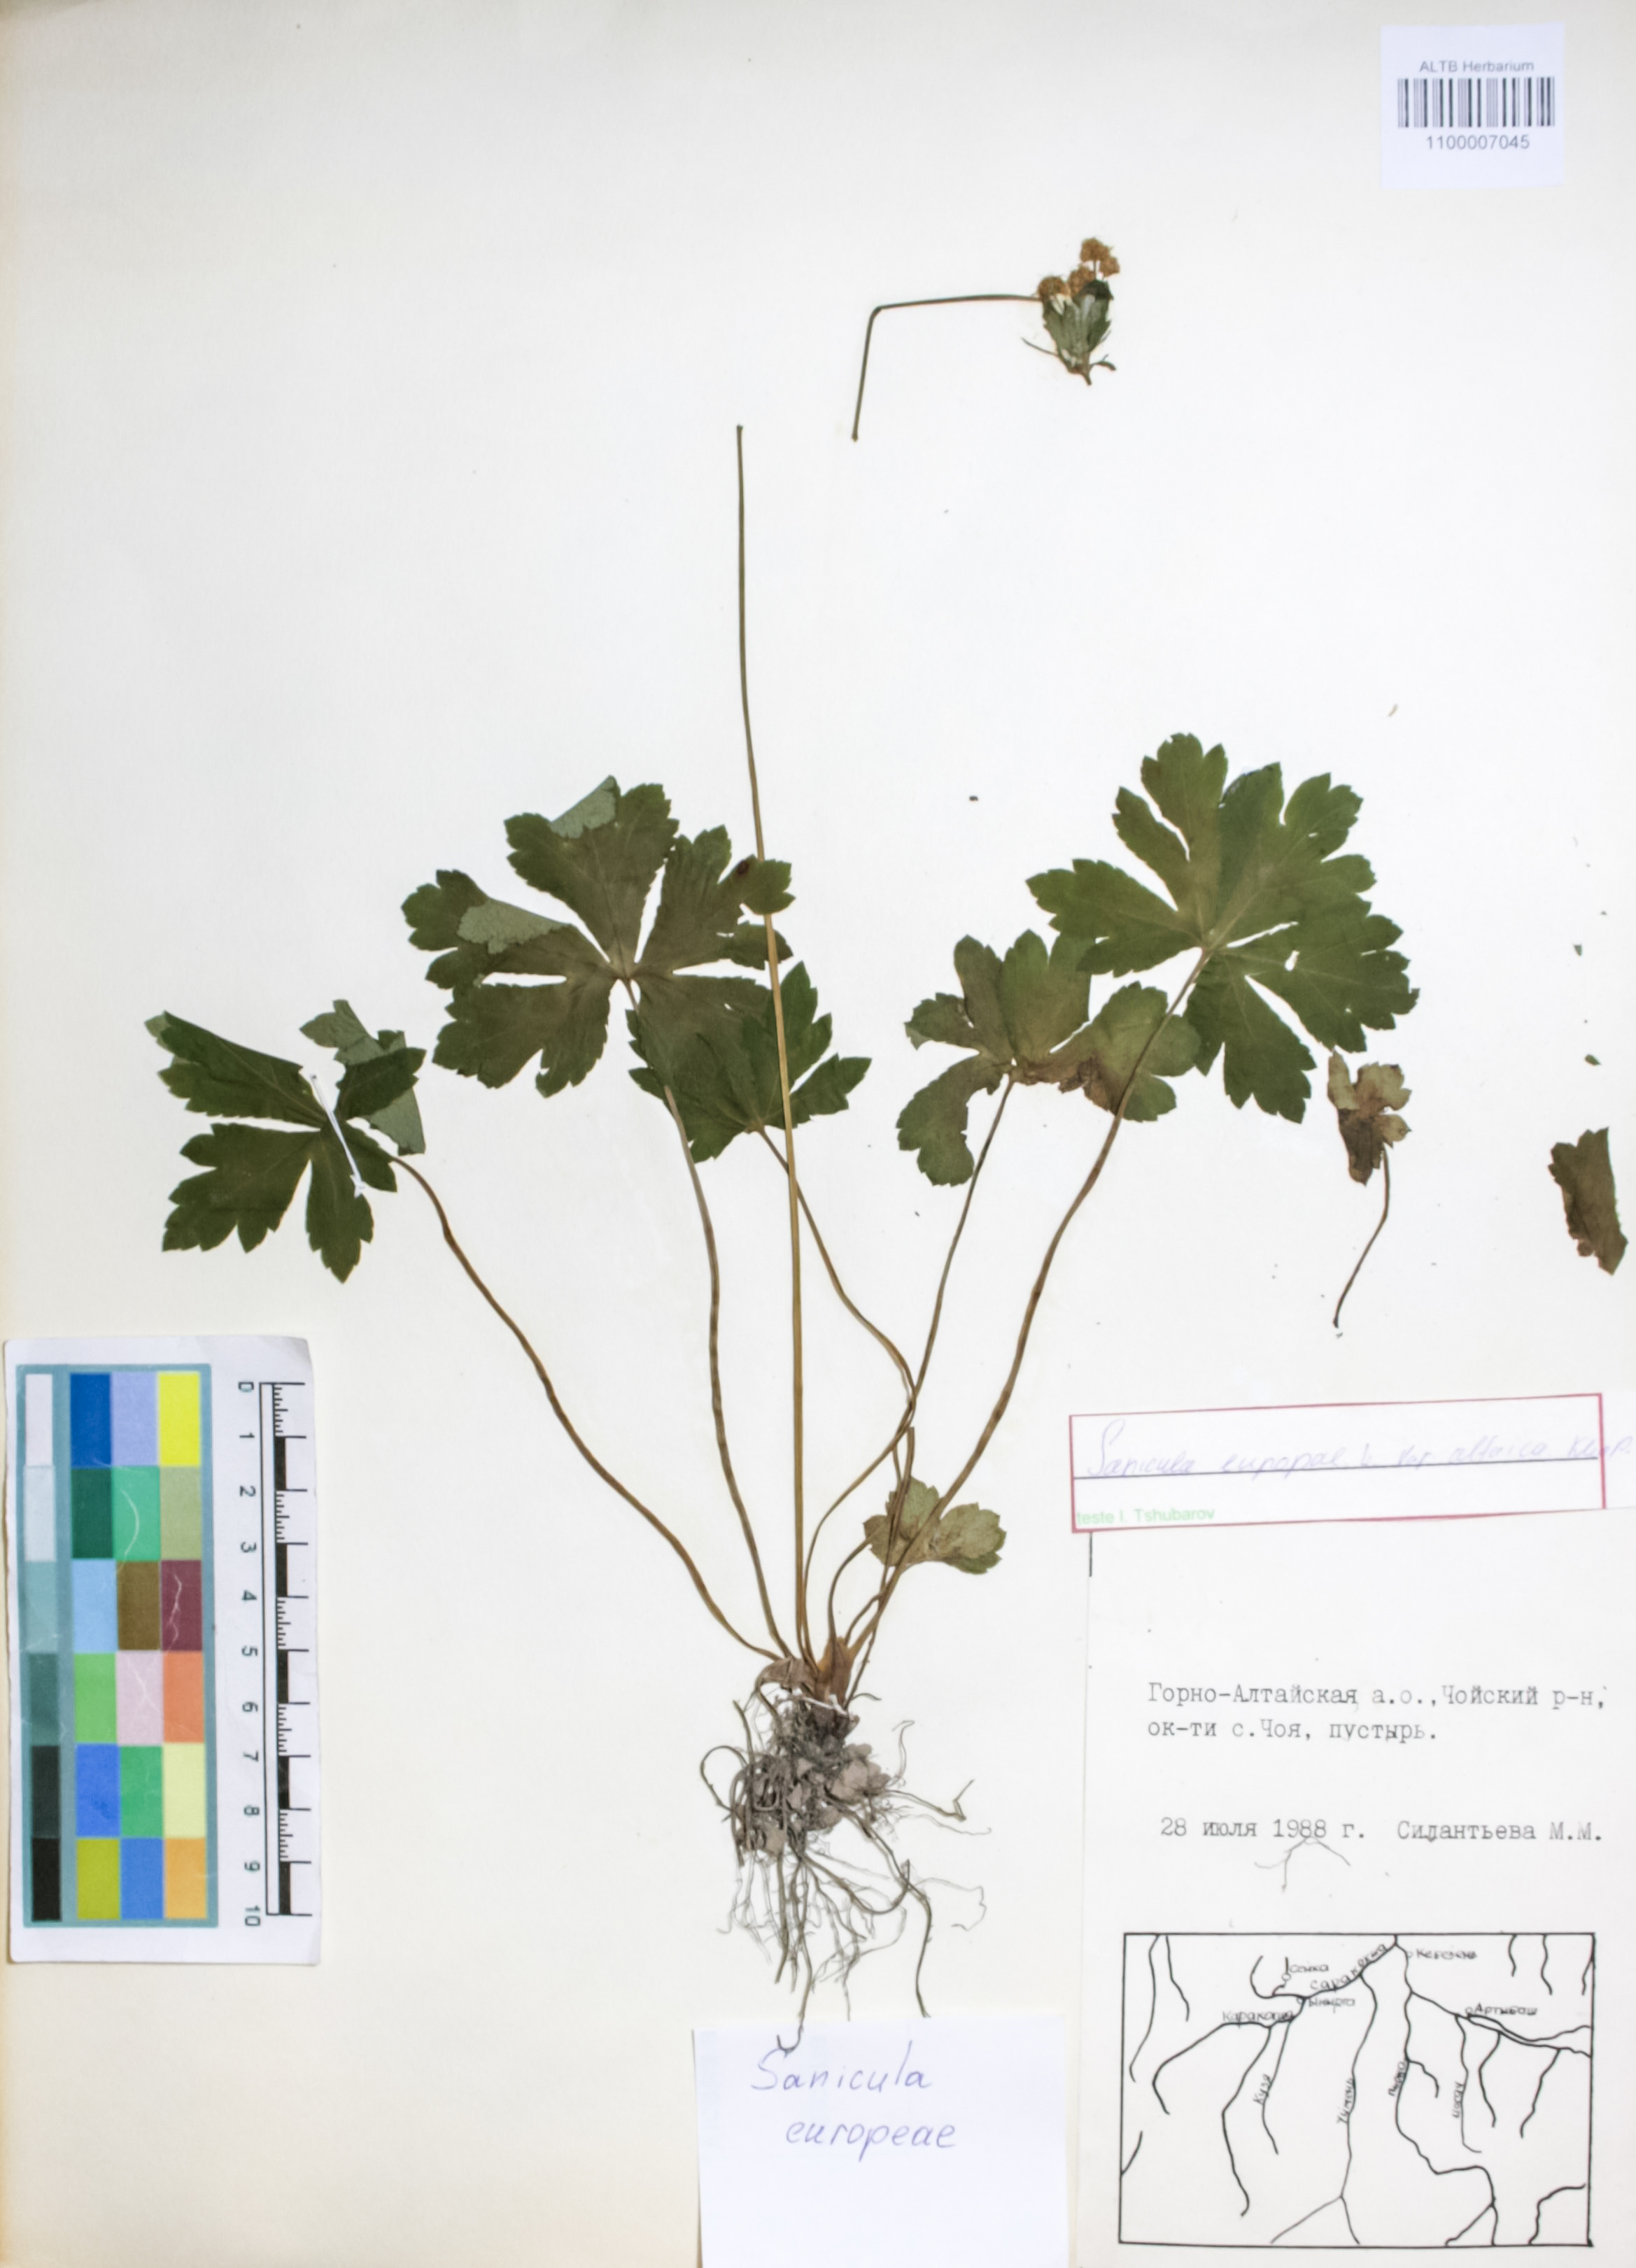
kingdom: Plantae
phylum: Tracheophyta
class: Magnoliopsida
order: Apiales
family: Apiaceae
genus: Sanicula
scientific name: Sanicula europaea
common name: Sanicle
